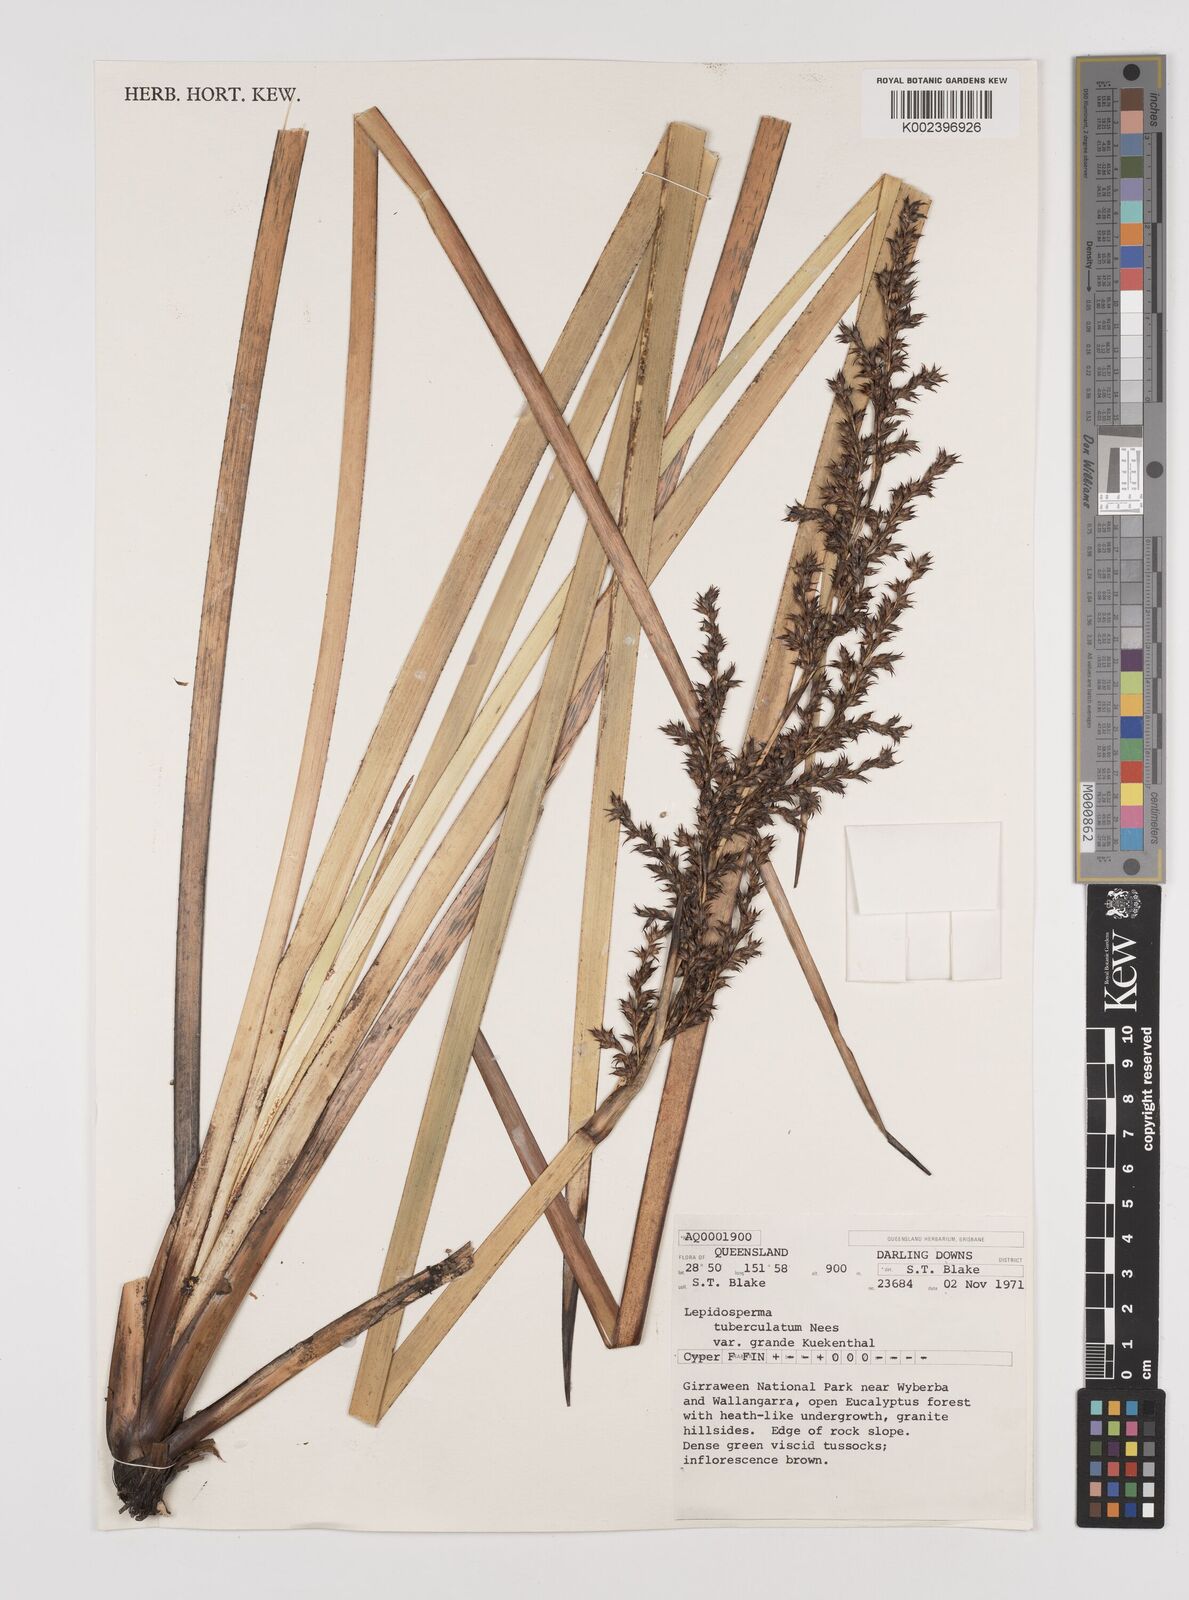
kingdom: Plantae
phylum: Tracheophyta
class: Liliopsida
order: Poales
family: Cyperaceae
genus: Lepidosperma
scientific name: Lepidosperma tuberculatum
